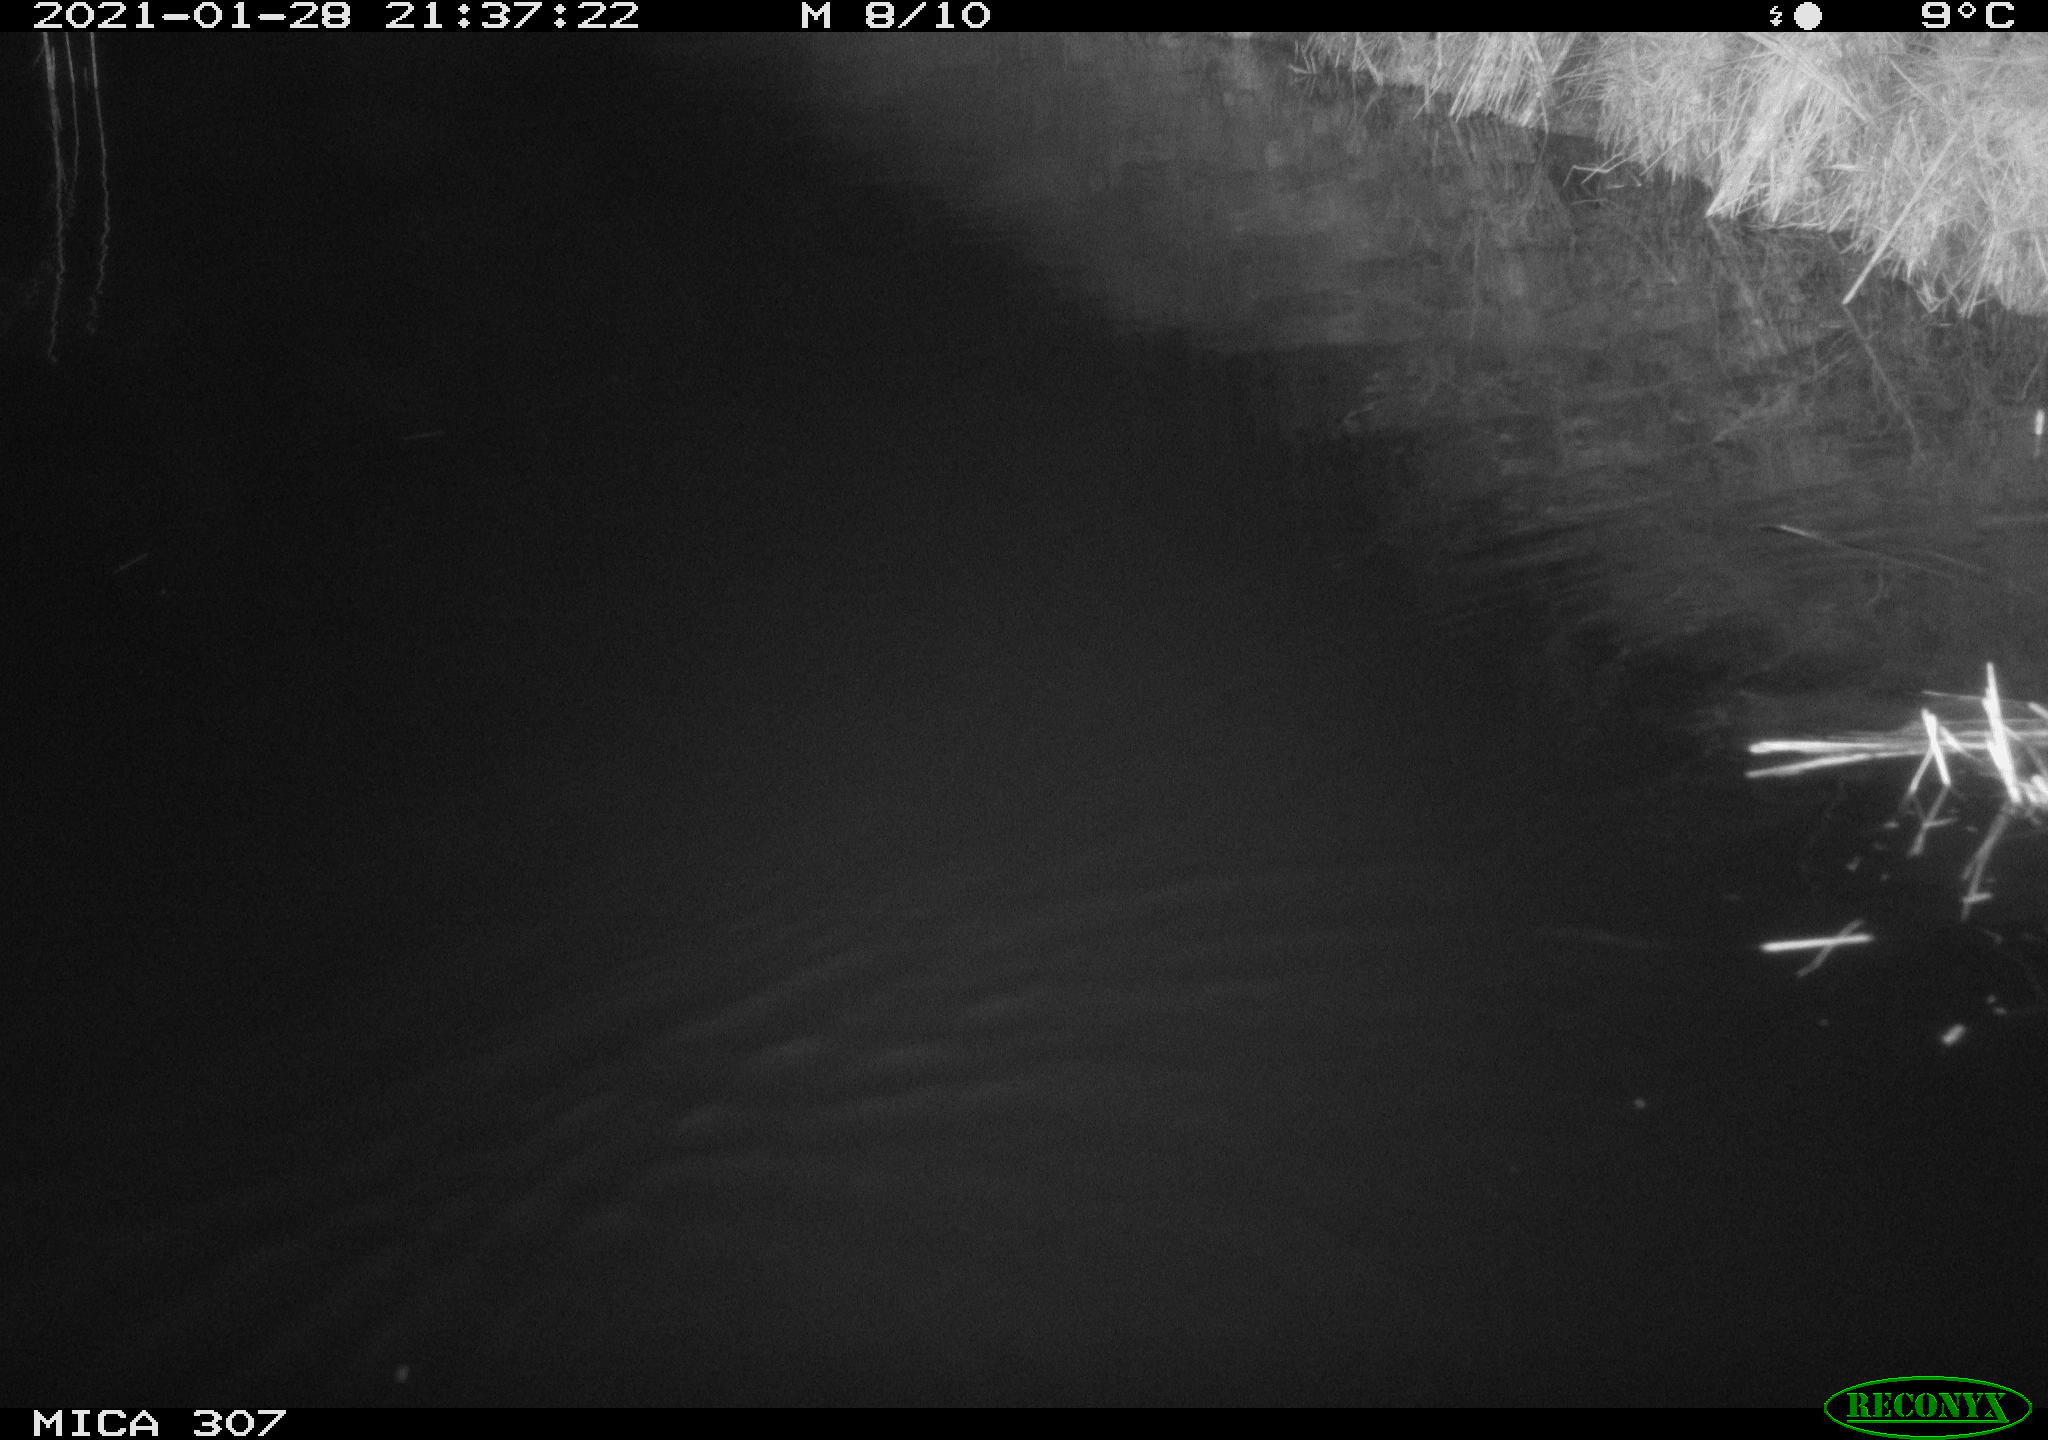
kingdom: Animalia
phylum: Chordata
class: Mammalia
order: Rodentia
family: Cricetidae
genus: Ondatra
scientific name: Ondatra zibethicus
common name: Muskrat
